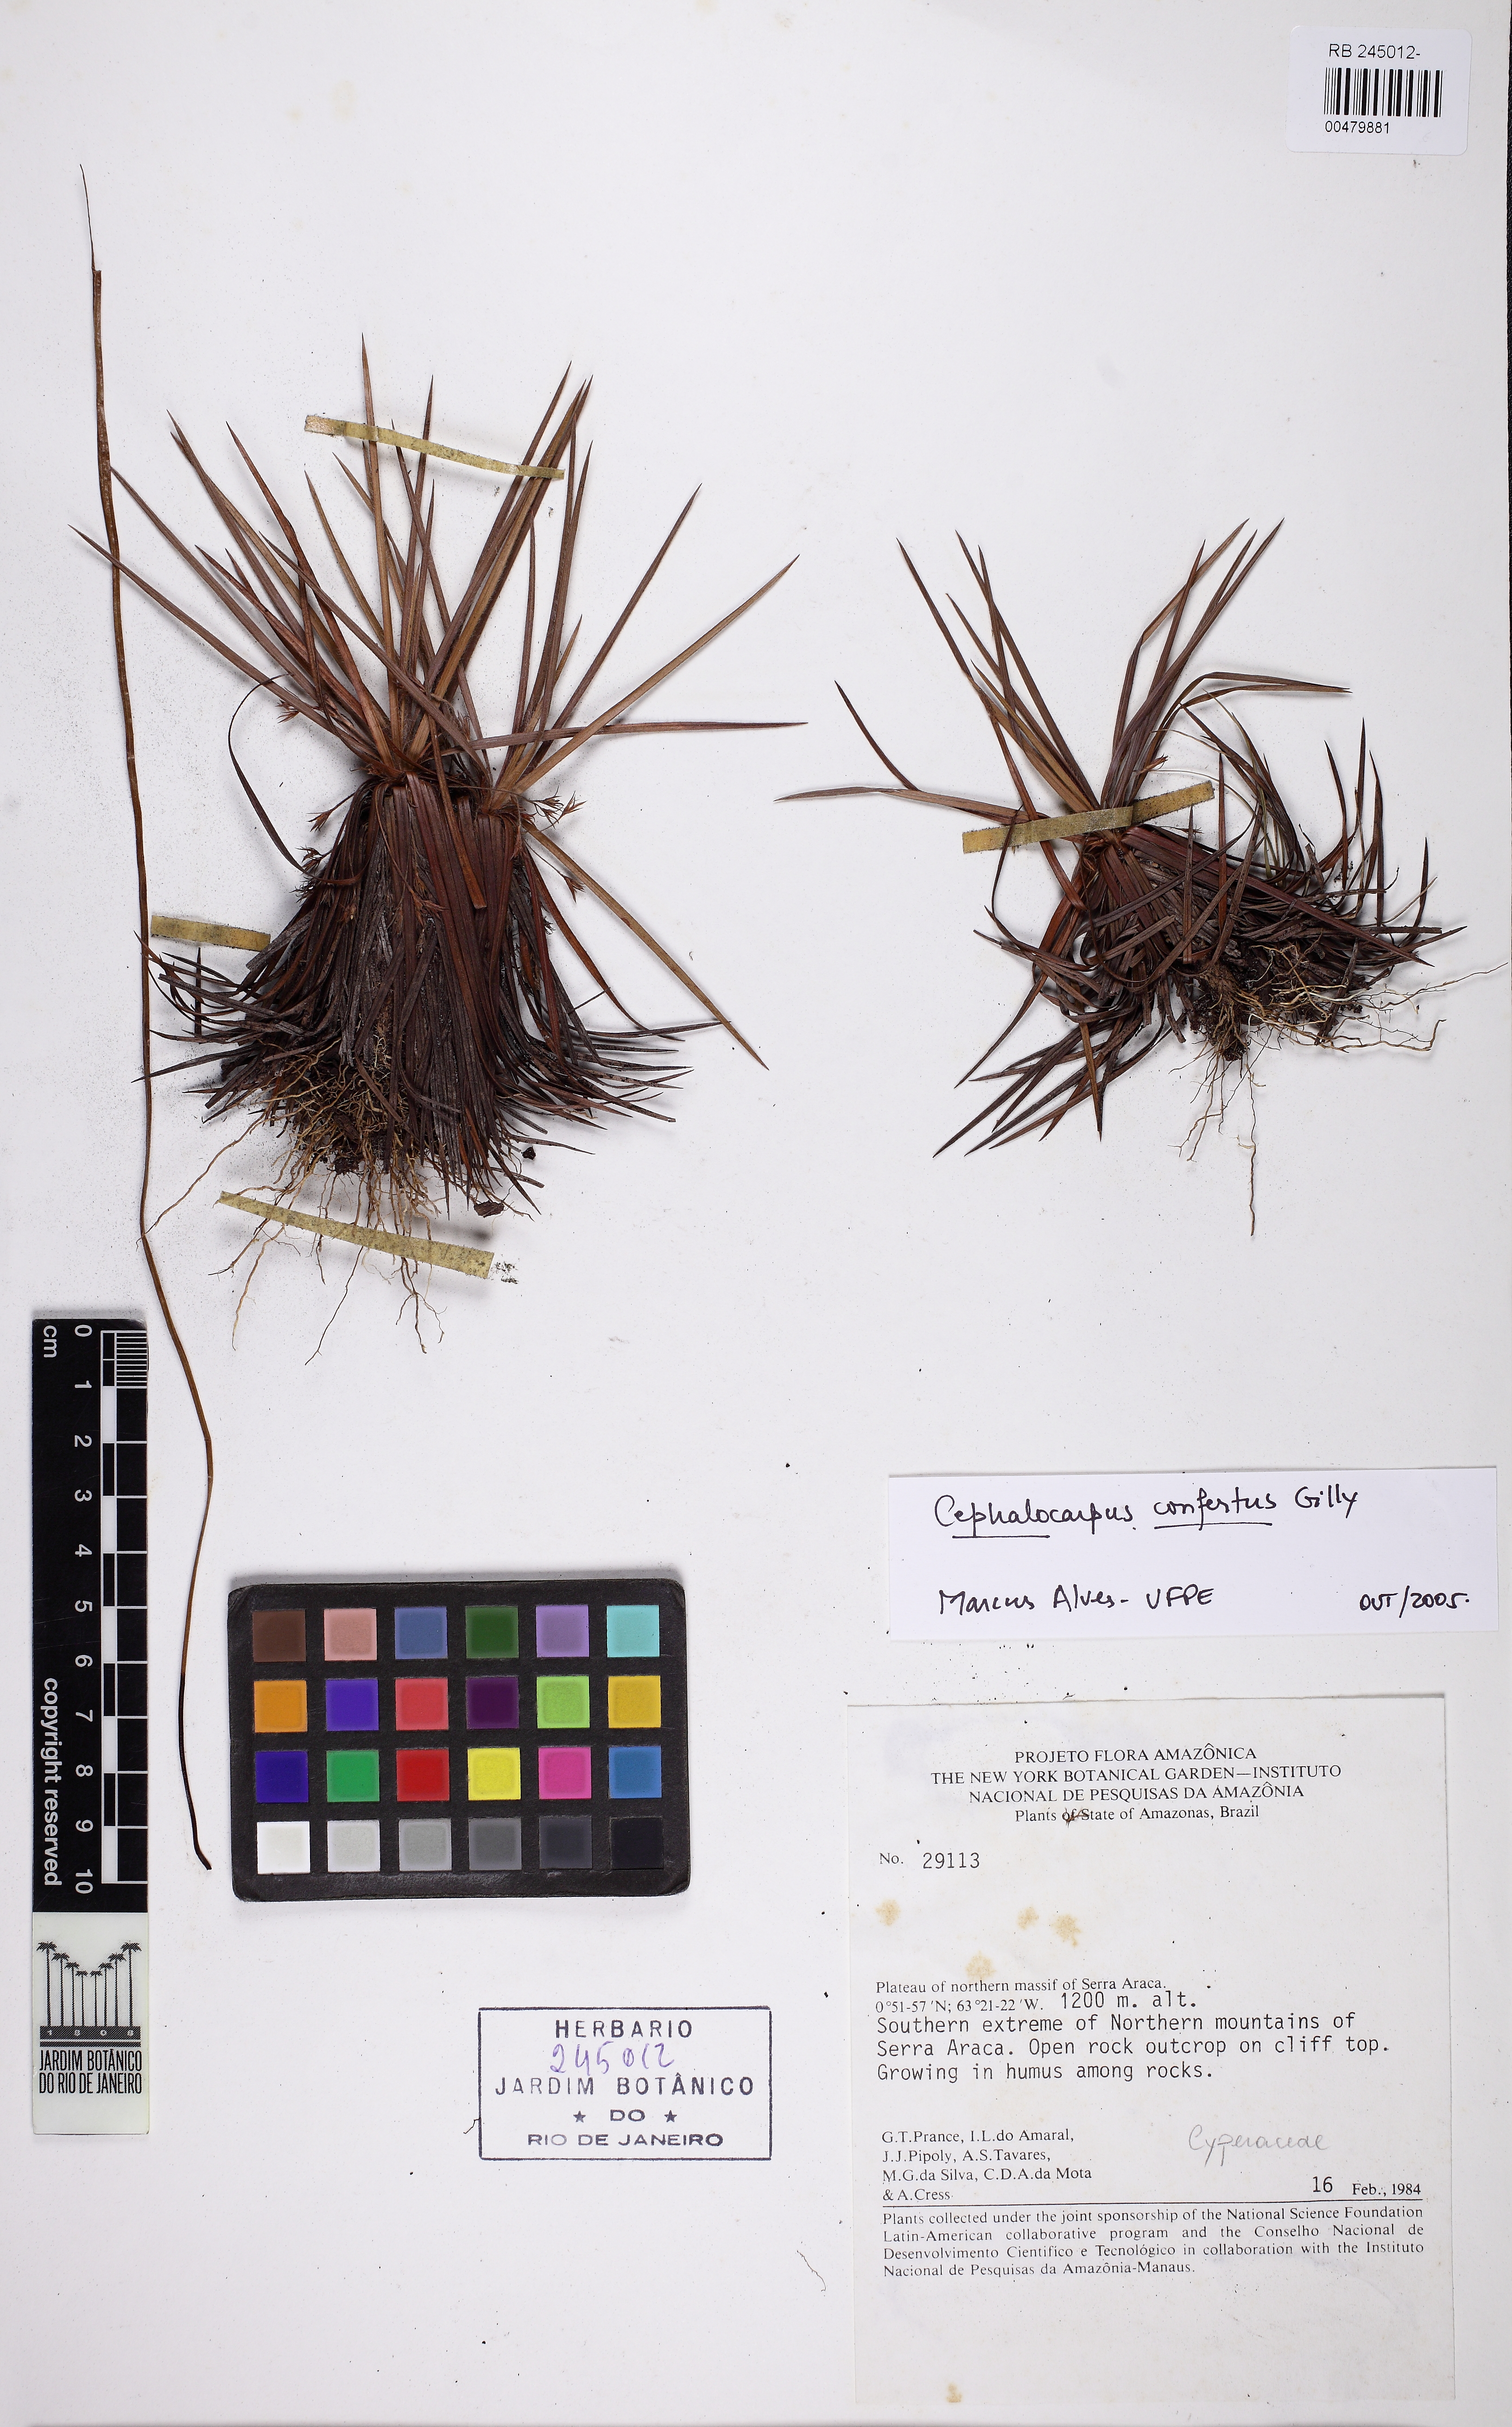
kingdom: Plantae
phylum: Tracheophyta
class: Liliopsida
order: Poales
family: Cyperaceae
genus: Cephalocarpus
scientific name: Cephalocarpus confertus
